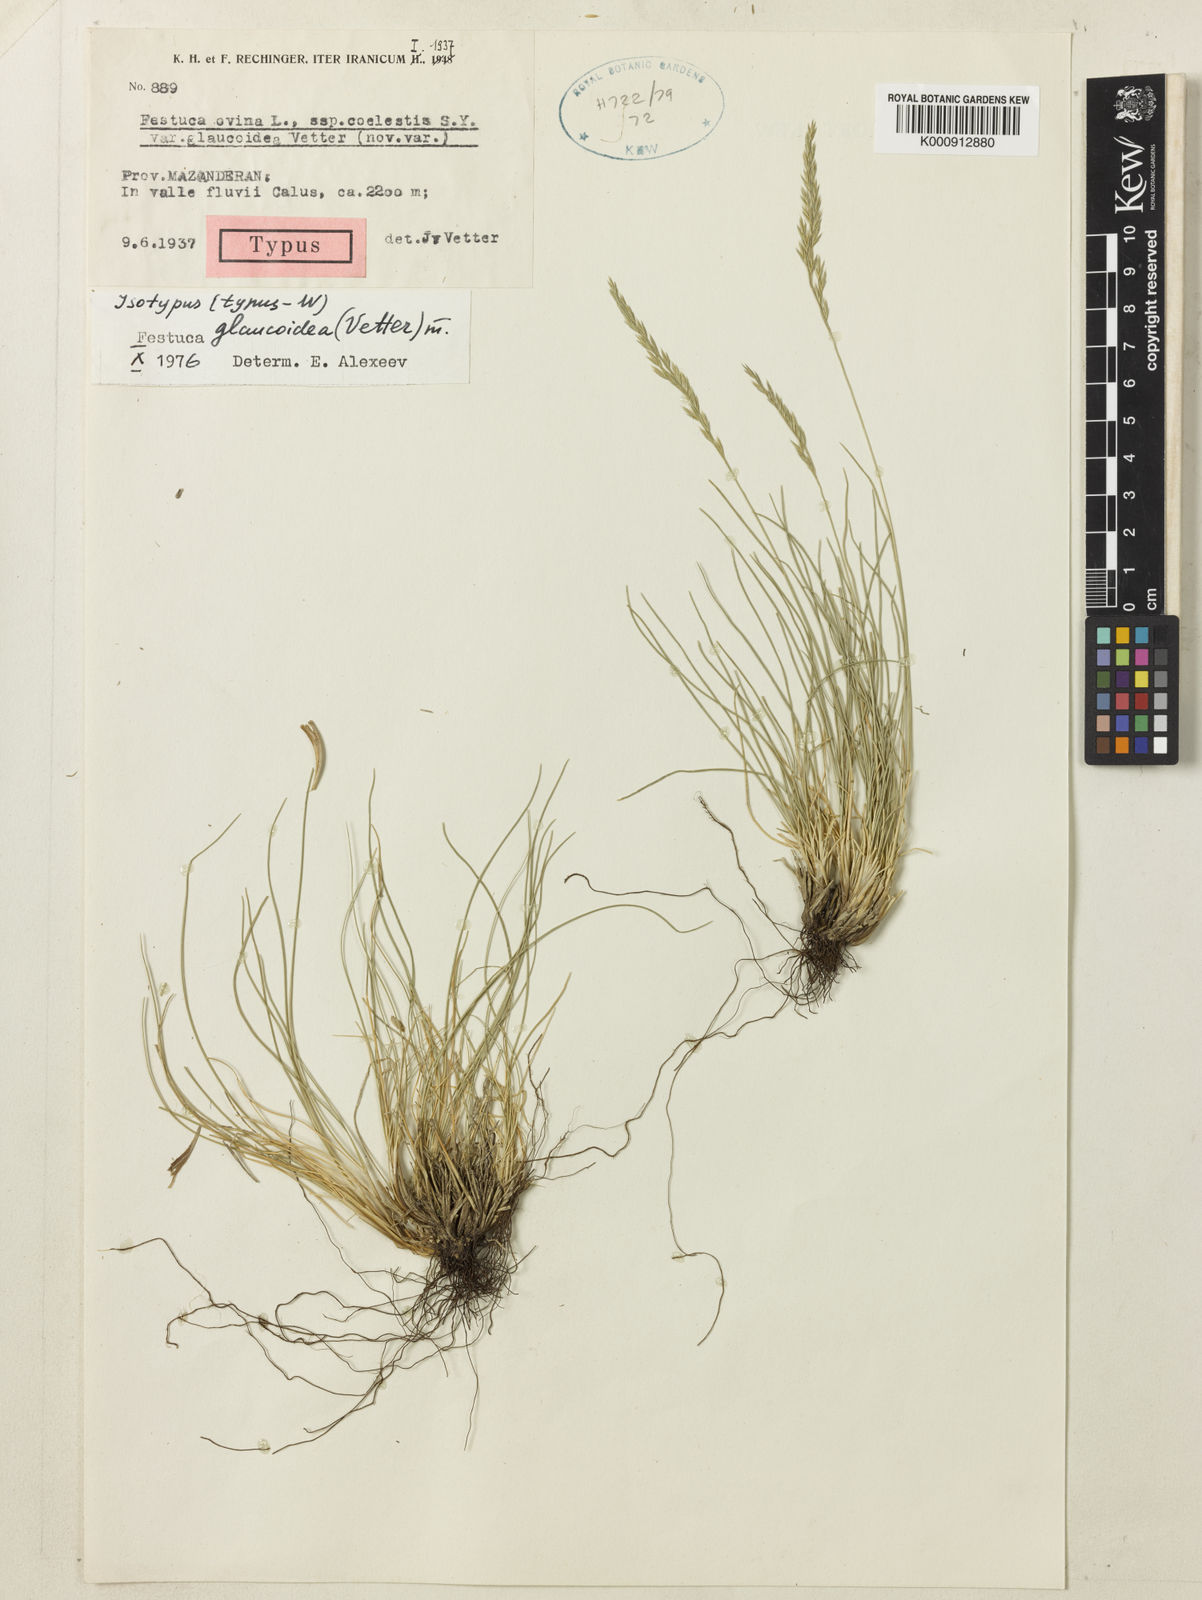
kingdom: Plantae
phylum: Tracheophyta
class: Liliopsida
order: Poales
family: Poaceae
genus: Festuca
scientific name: Festuca ovina
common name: Sheep fescue
